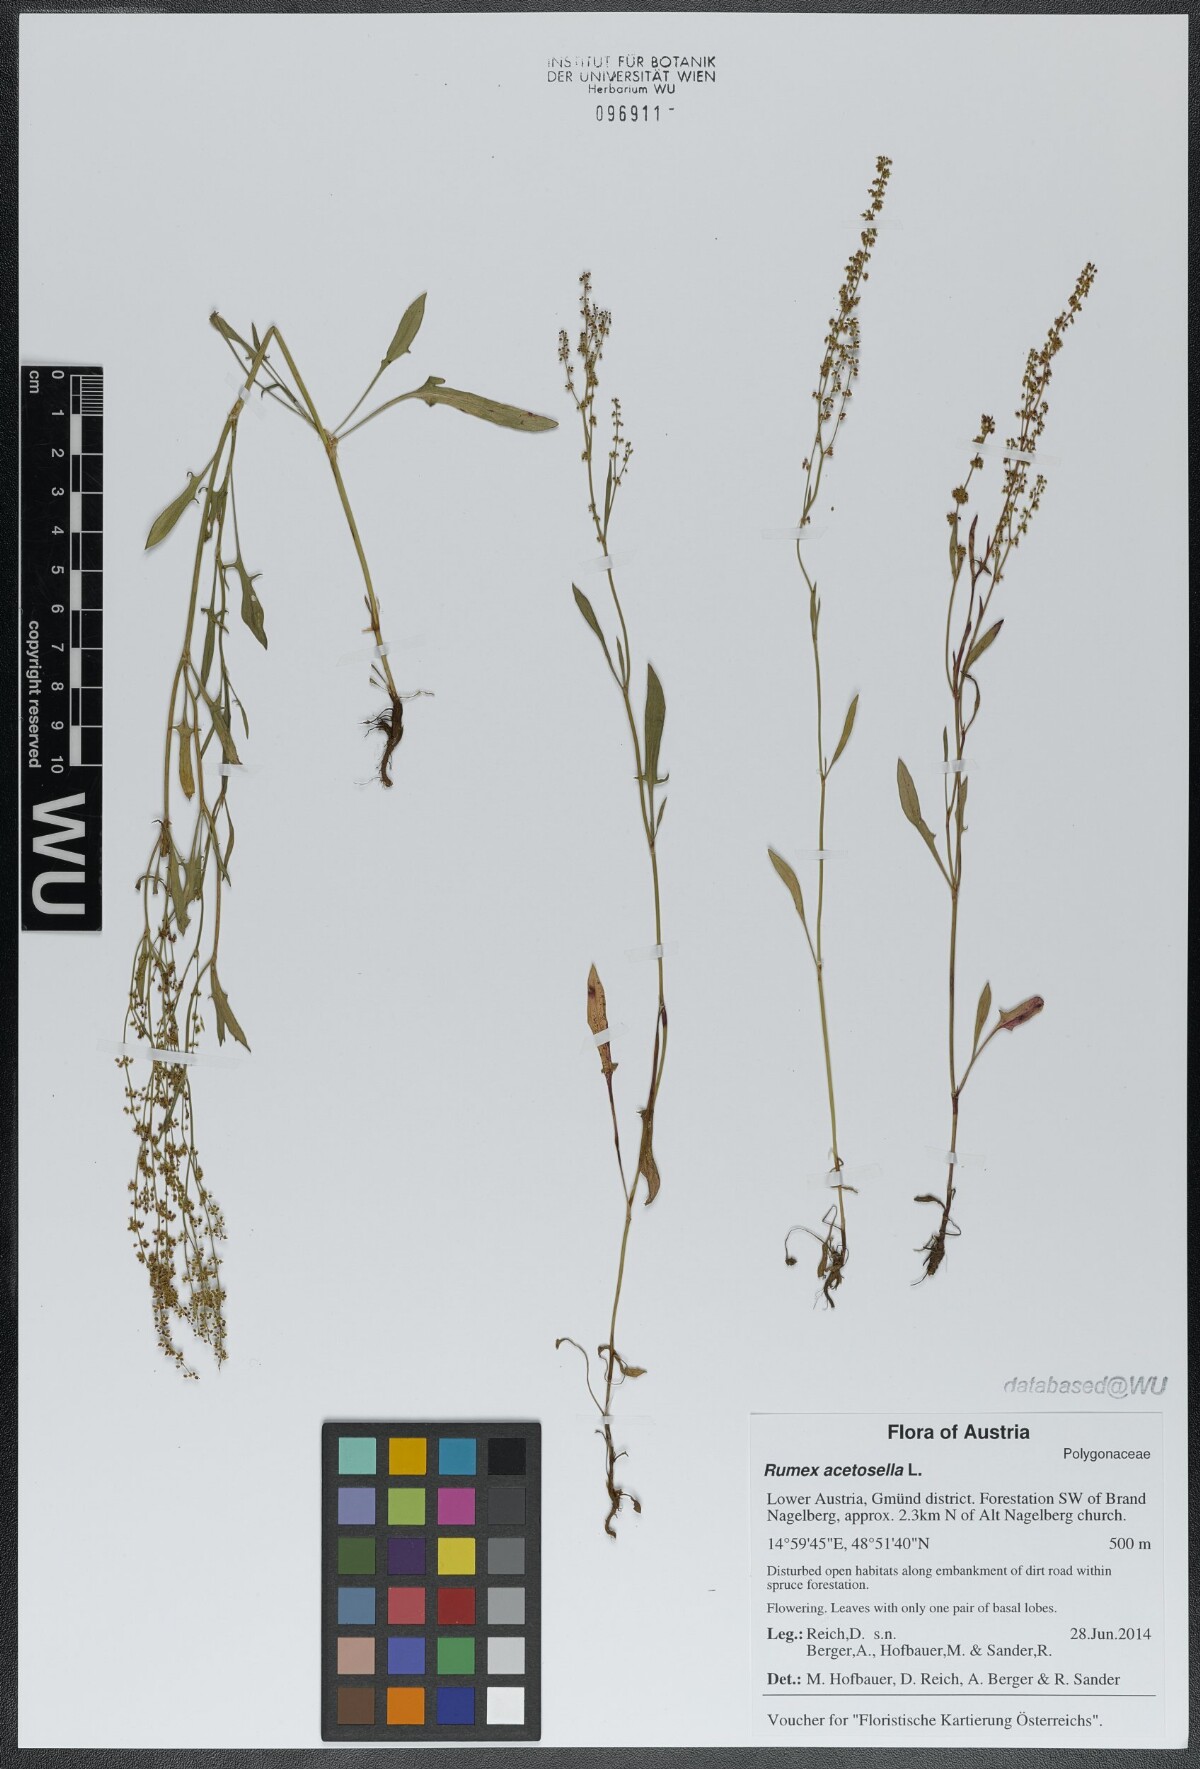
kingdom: Plantae
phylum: Tracheophyta
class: Magnoliopsida
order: Caryophyllales
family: Polygonaceae
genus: Rumex
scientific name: Rumex acetosella
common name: Common sheep sorrel
